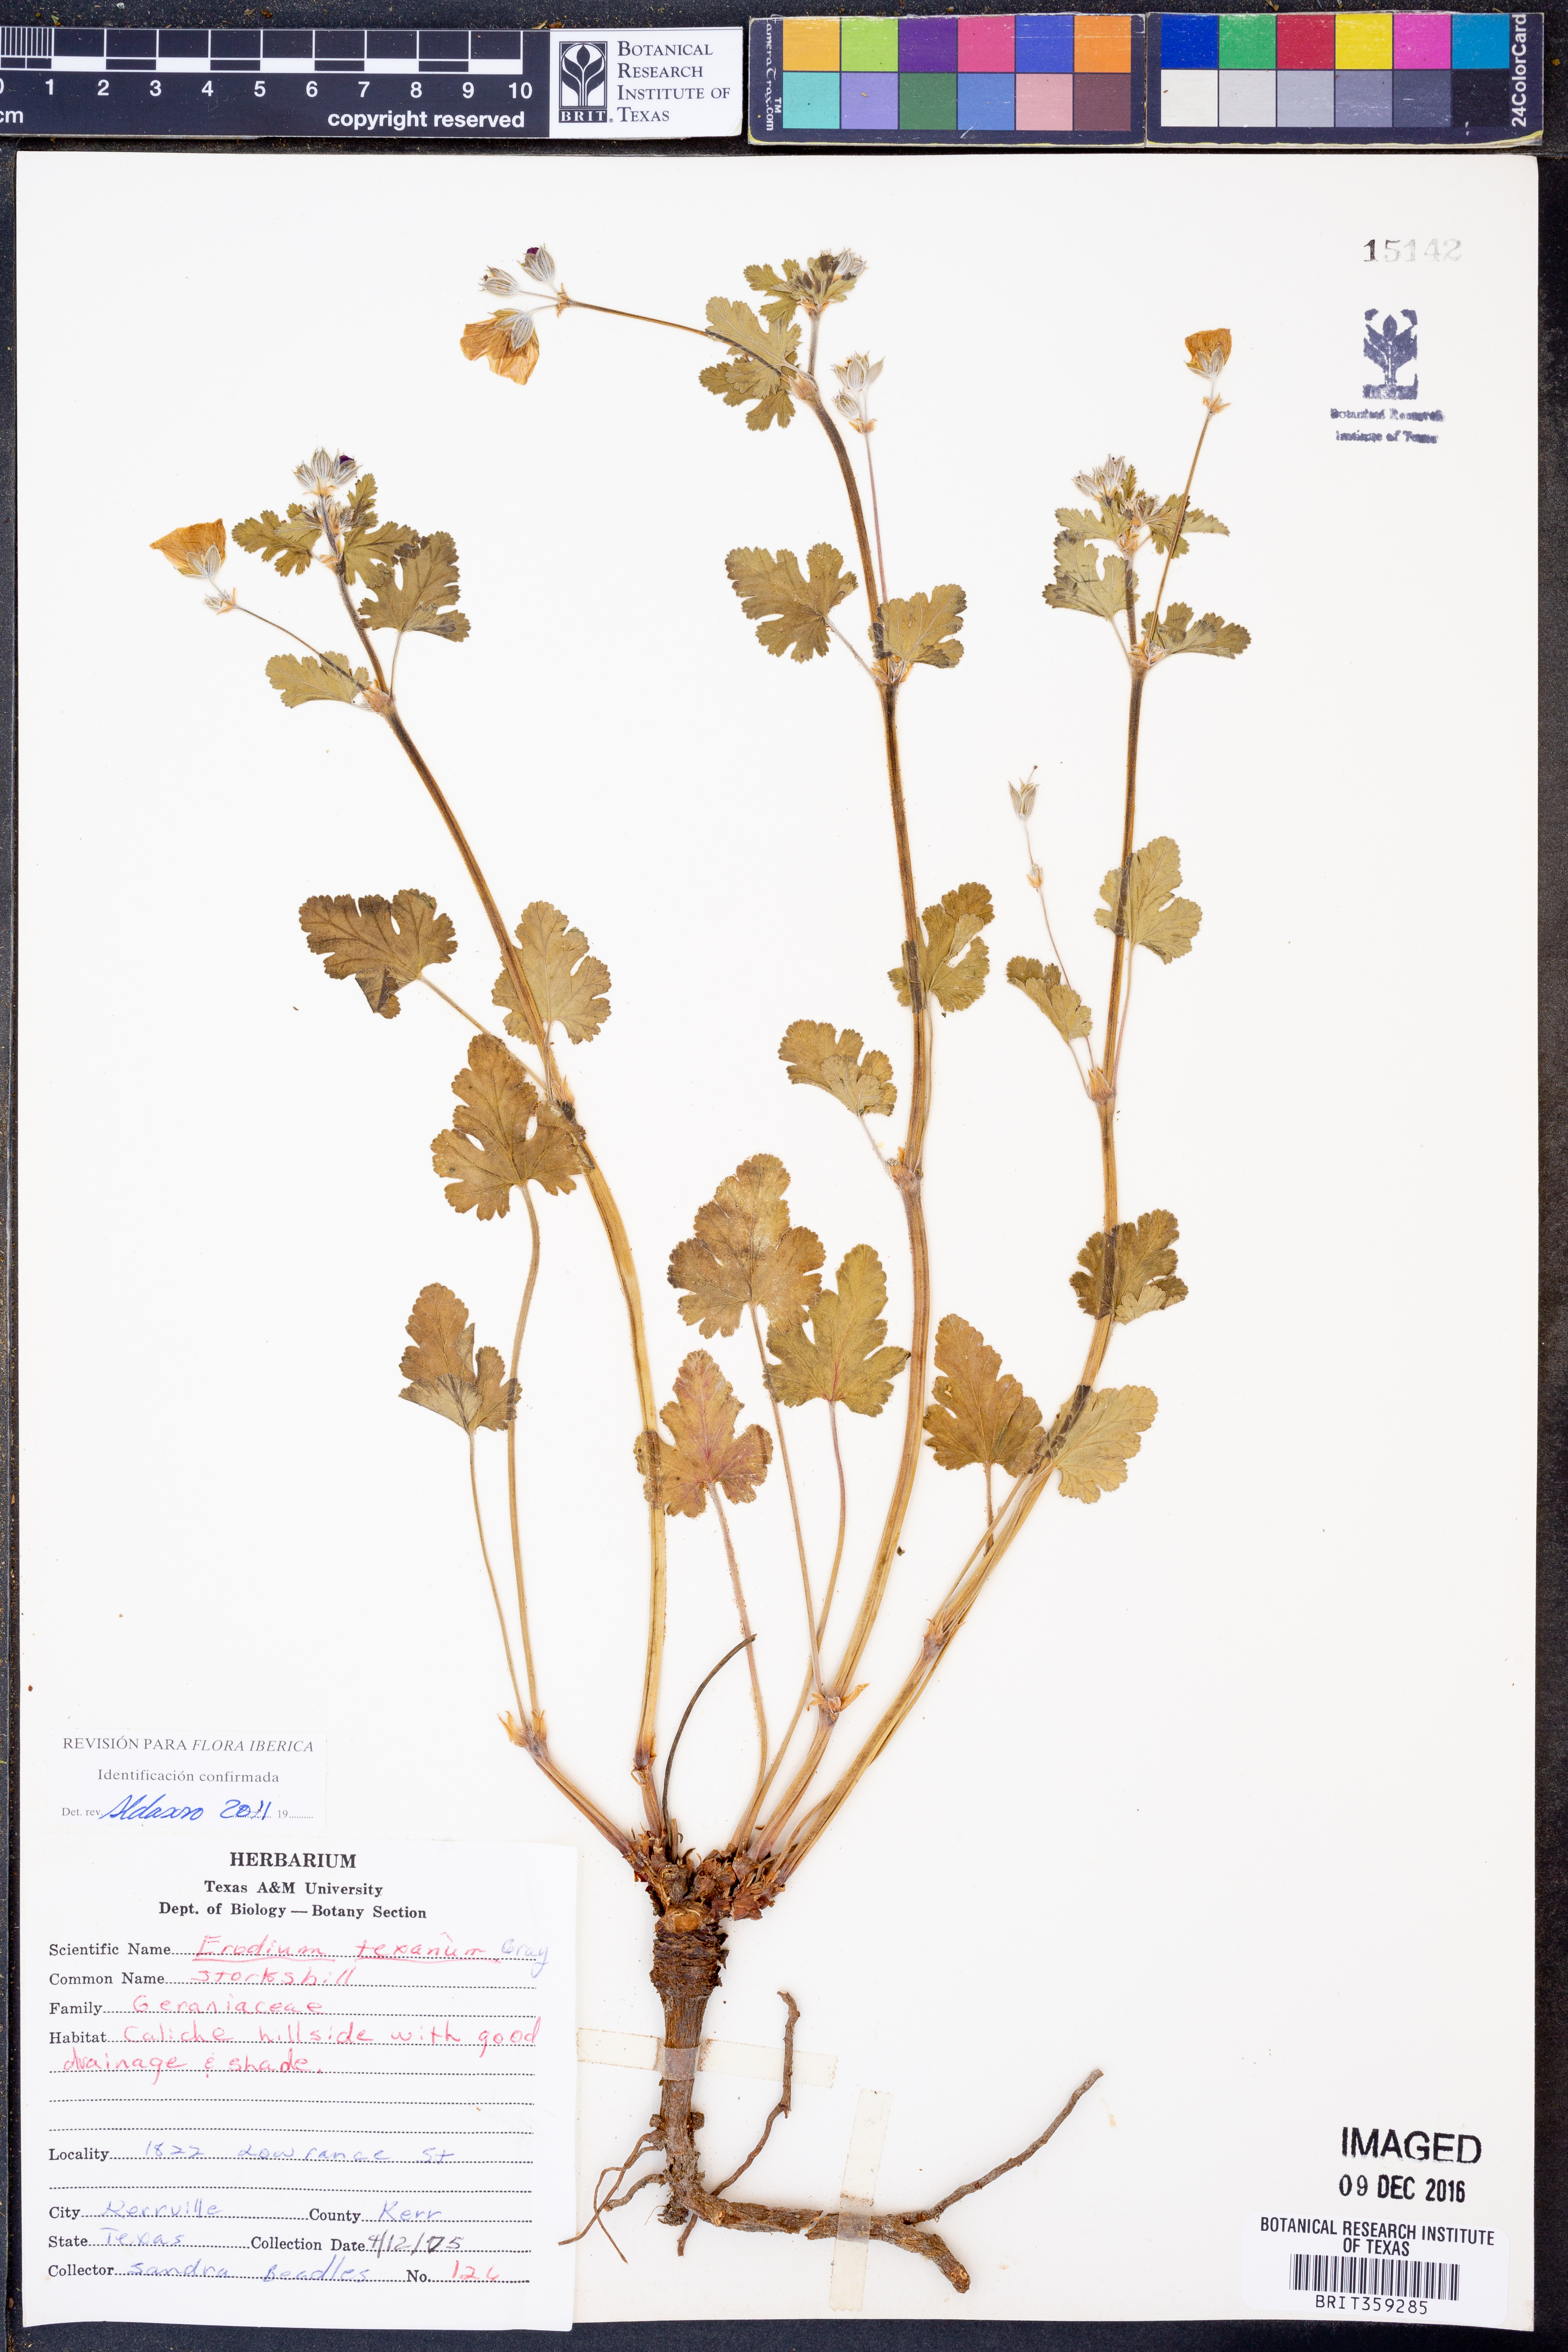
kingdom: Plantae
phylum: Tracheophyta
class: Magnoliopsida
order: Geraniales
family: Geraniaceae
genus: Erodium
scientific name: Erodium texanum
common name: Texas stork's-bill
